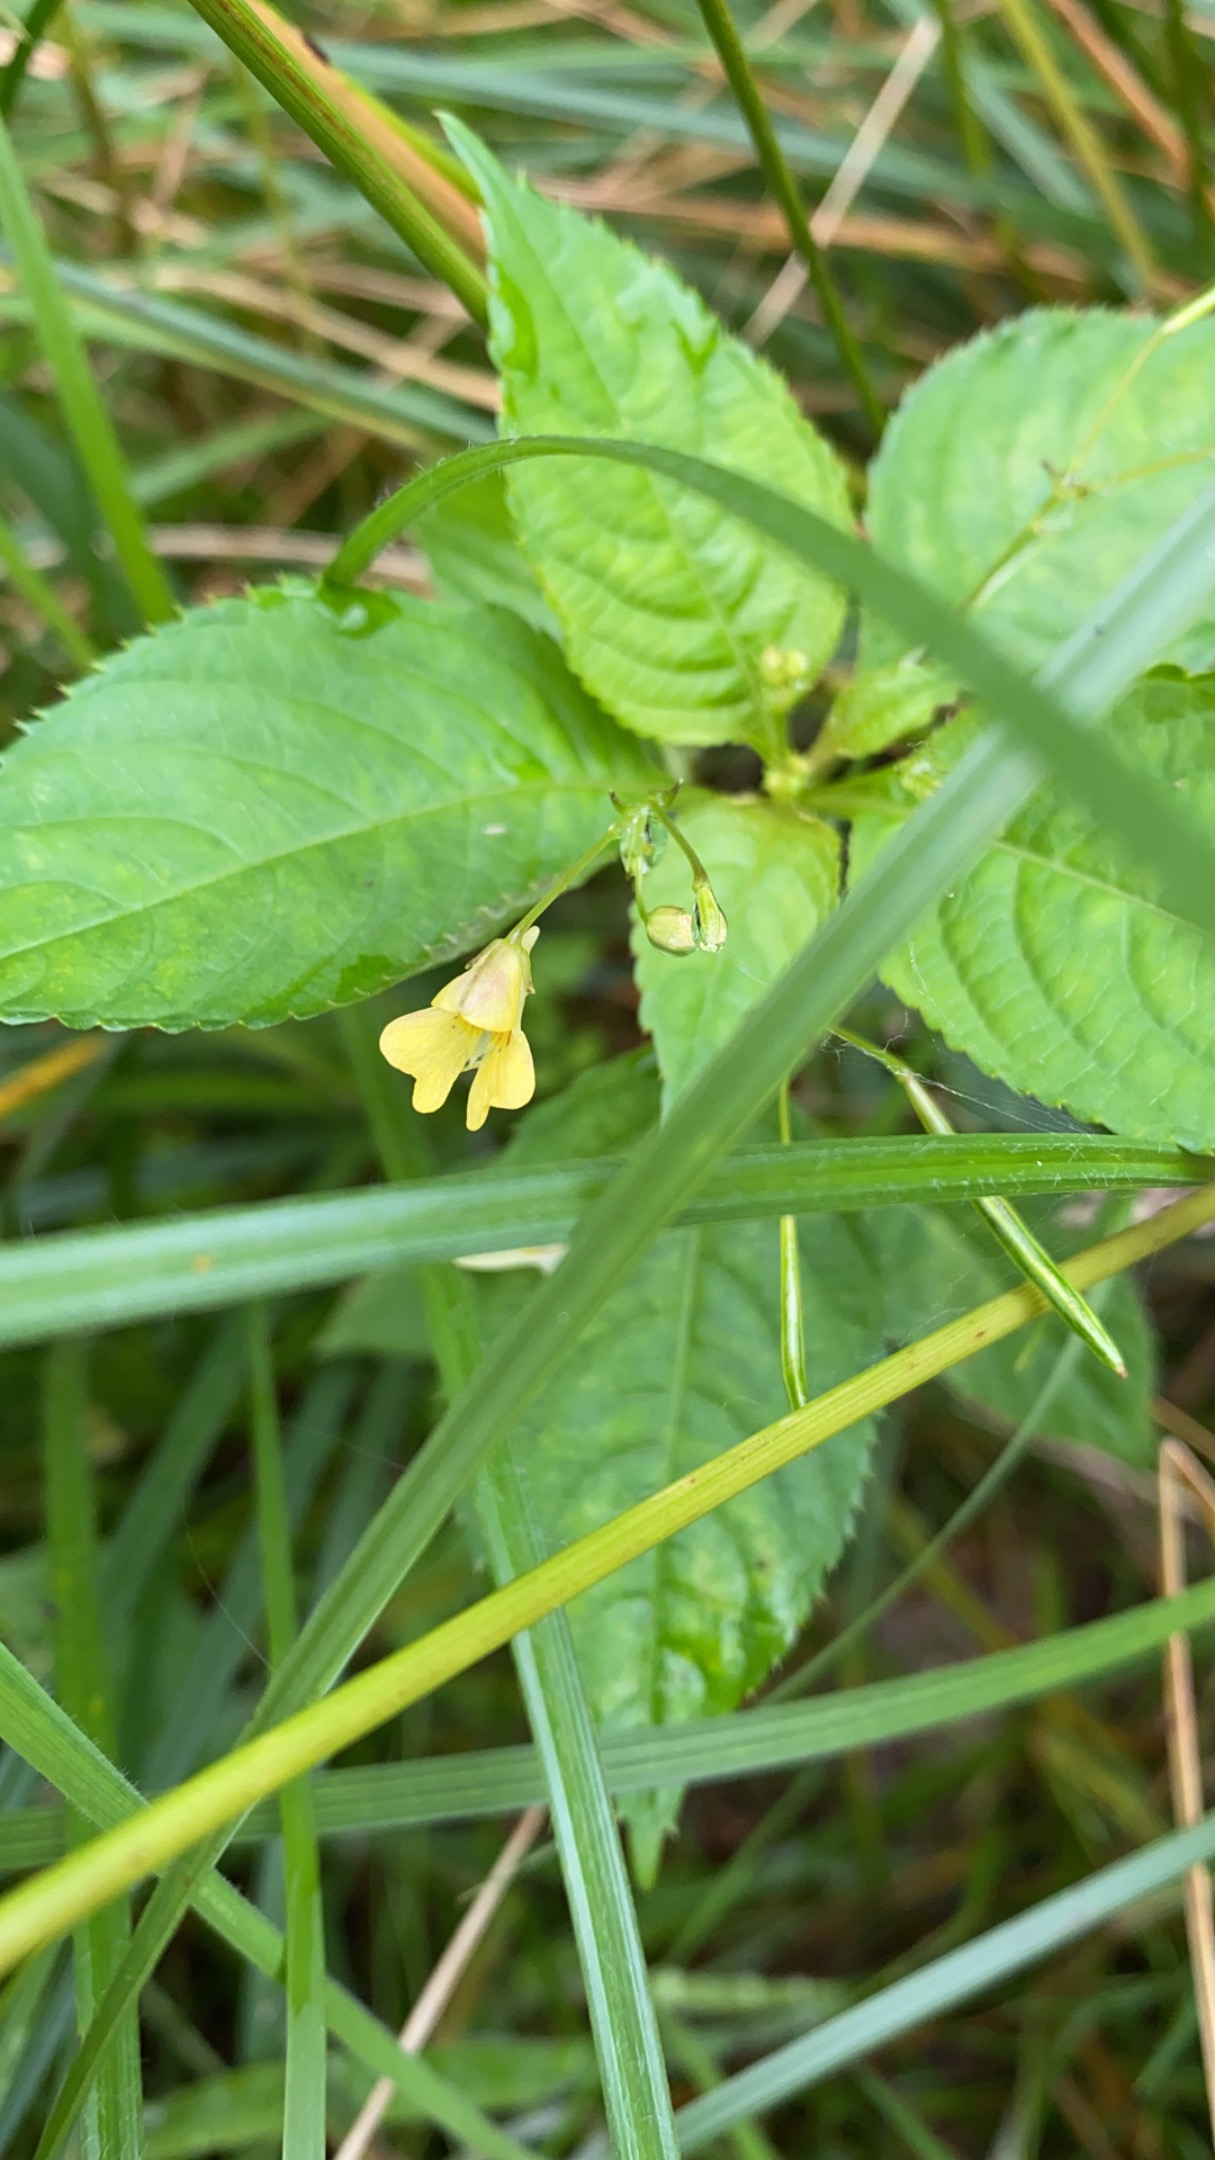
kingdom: Plantae
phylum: Tracheophyta
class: Magnoliopsida
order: Ericales
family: Balsaminaceae
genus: Impatiens
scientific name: Impatiens parviflora
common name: Småblomstret balsamin
